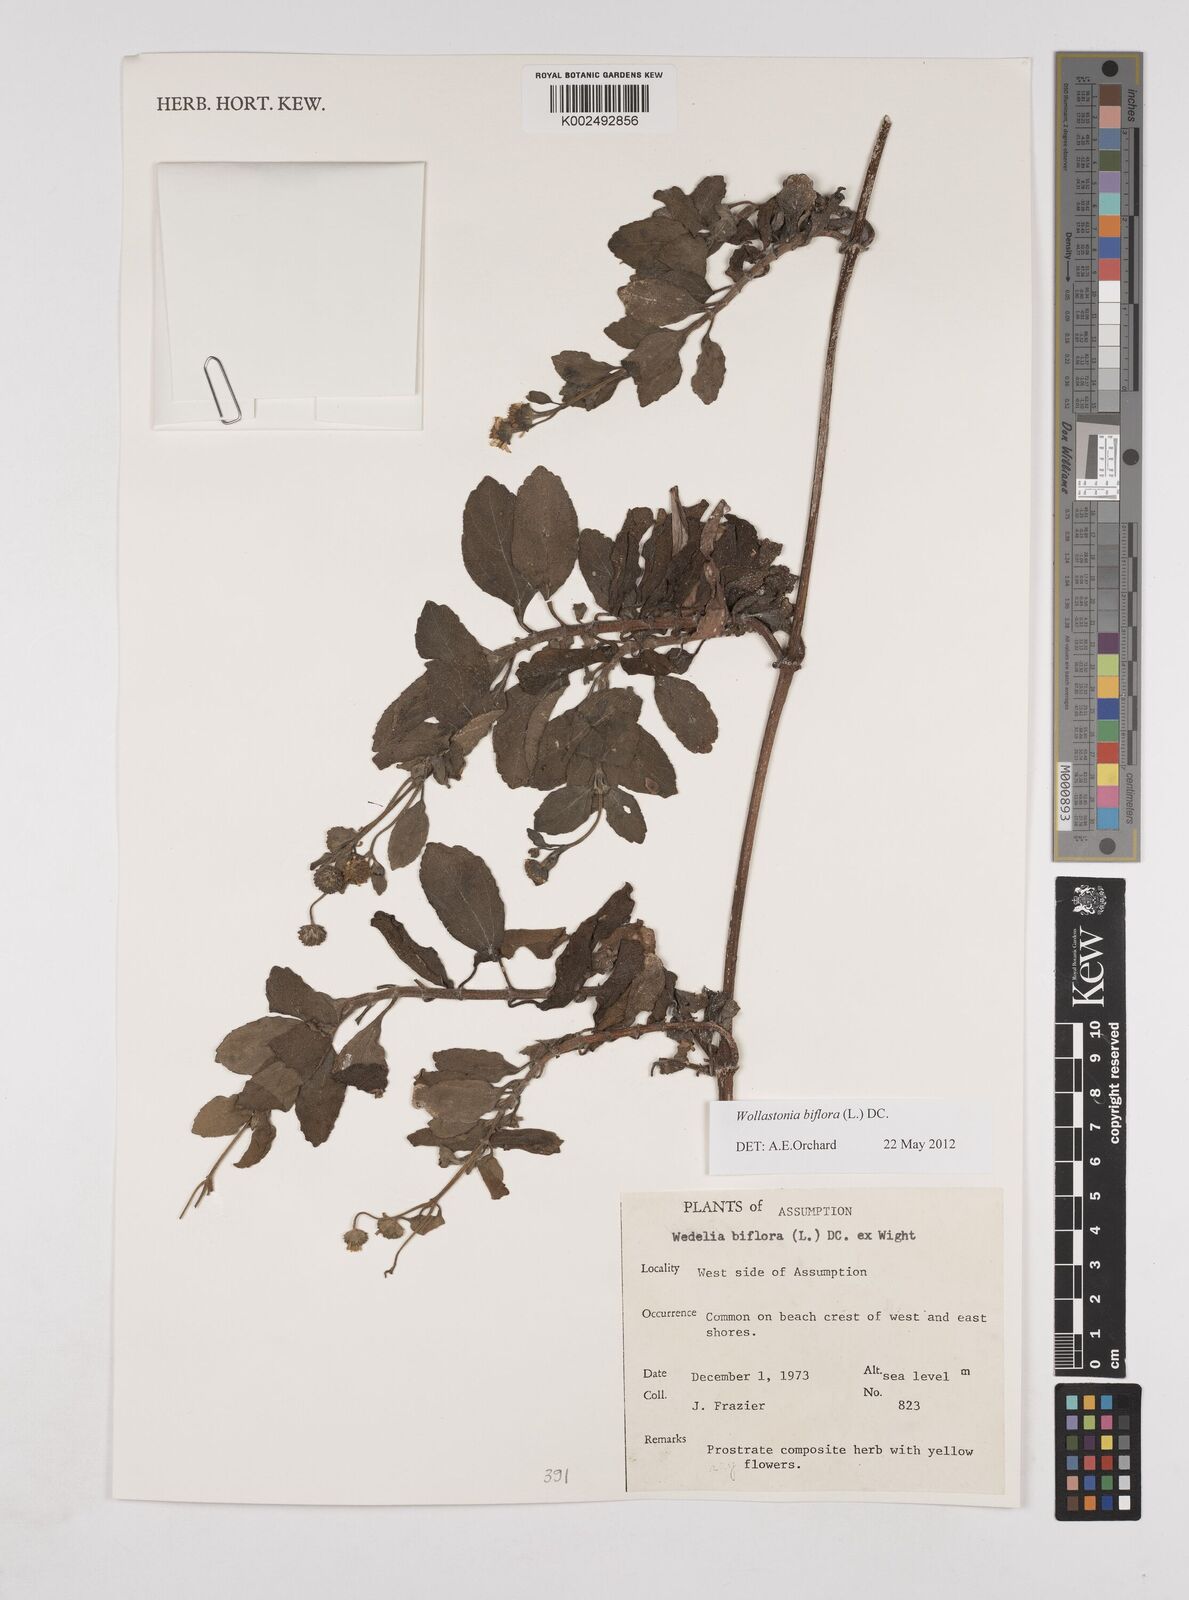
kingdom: Plantae
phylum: Tracheophyta
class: Magnoliopsida
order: Asterales
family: Asteraceae
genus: Wollastonia
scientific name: Wollastonia biflora
